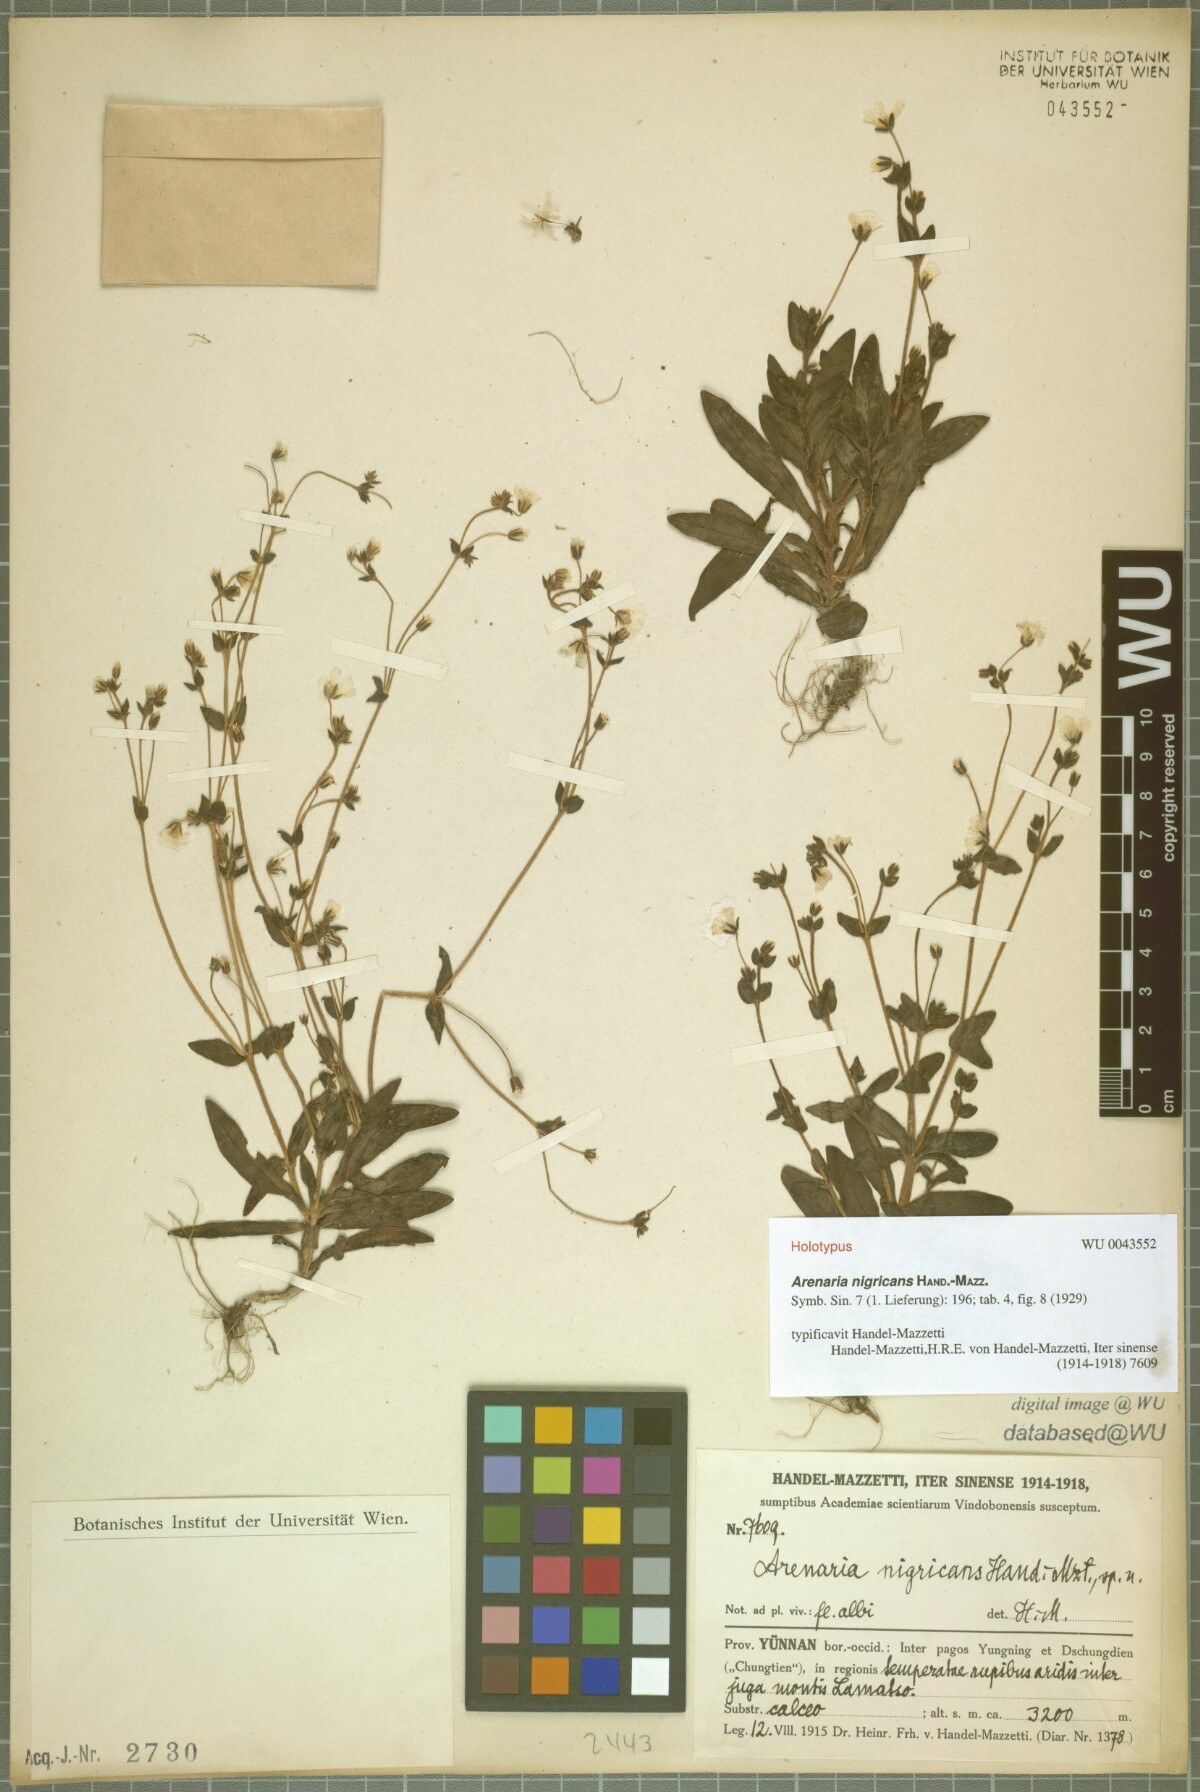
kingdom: Plantae
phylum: Tracheophyta
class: Magnoliopsida
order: Caryophyllales
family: Caryophyllaceae
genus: Odontostemma
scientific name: Odontostemma nigricans
